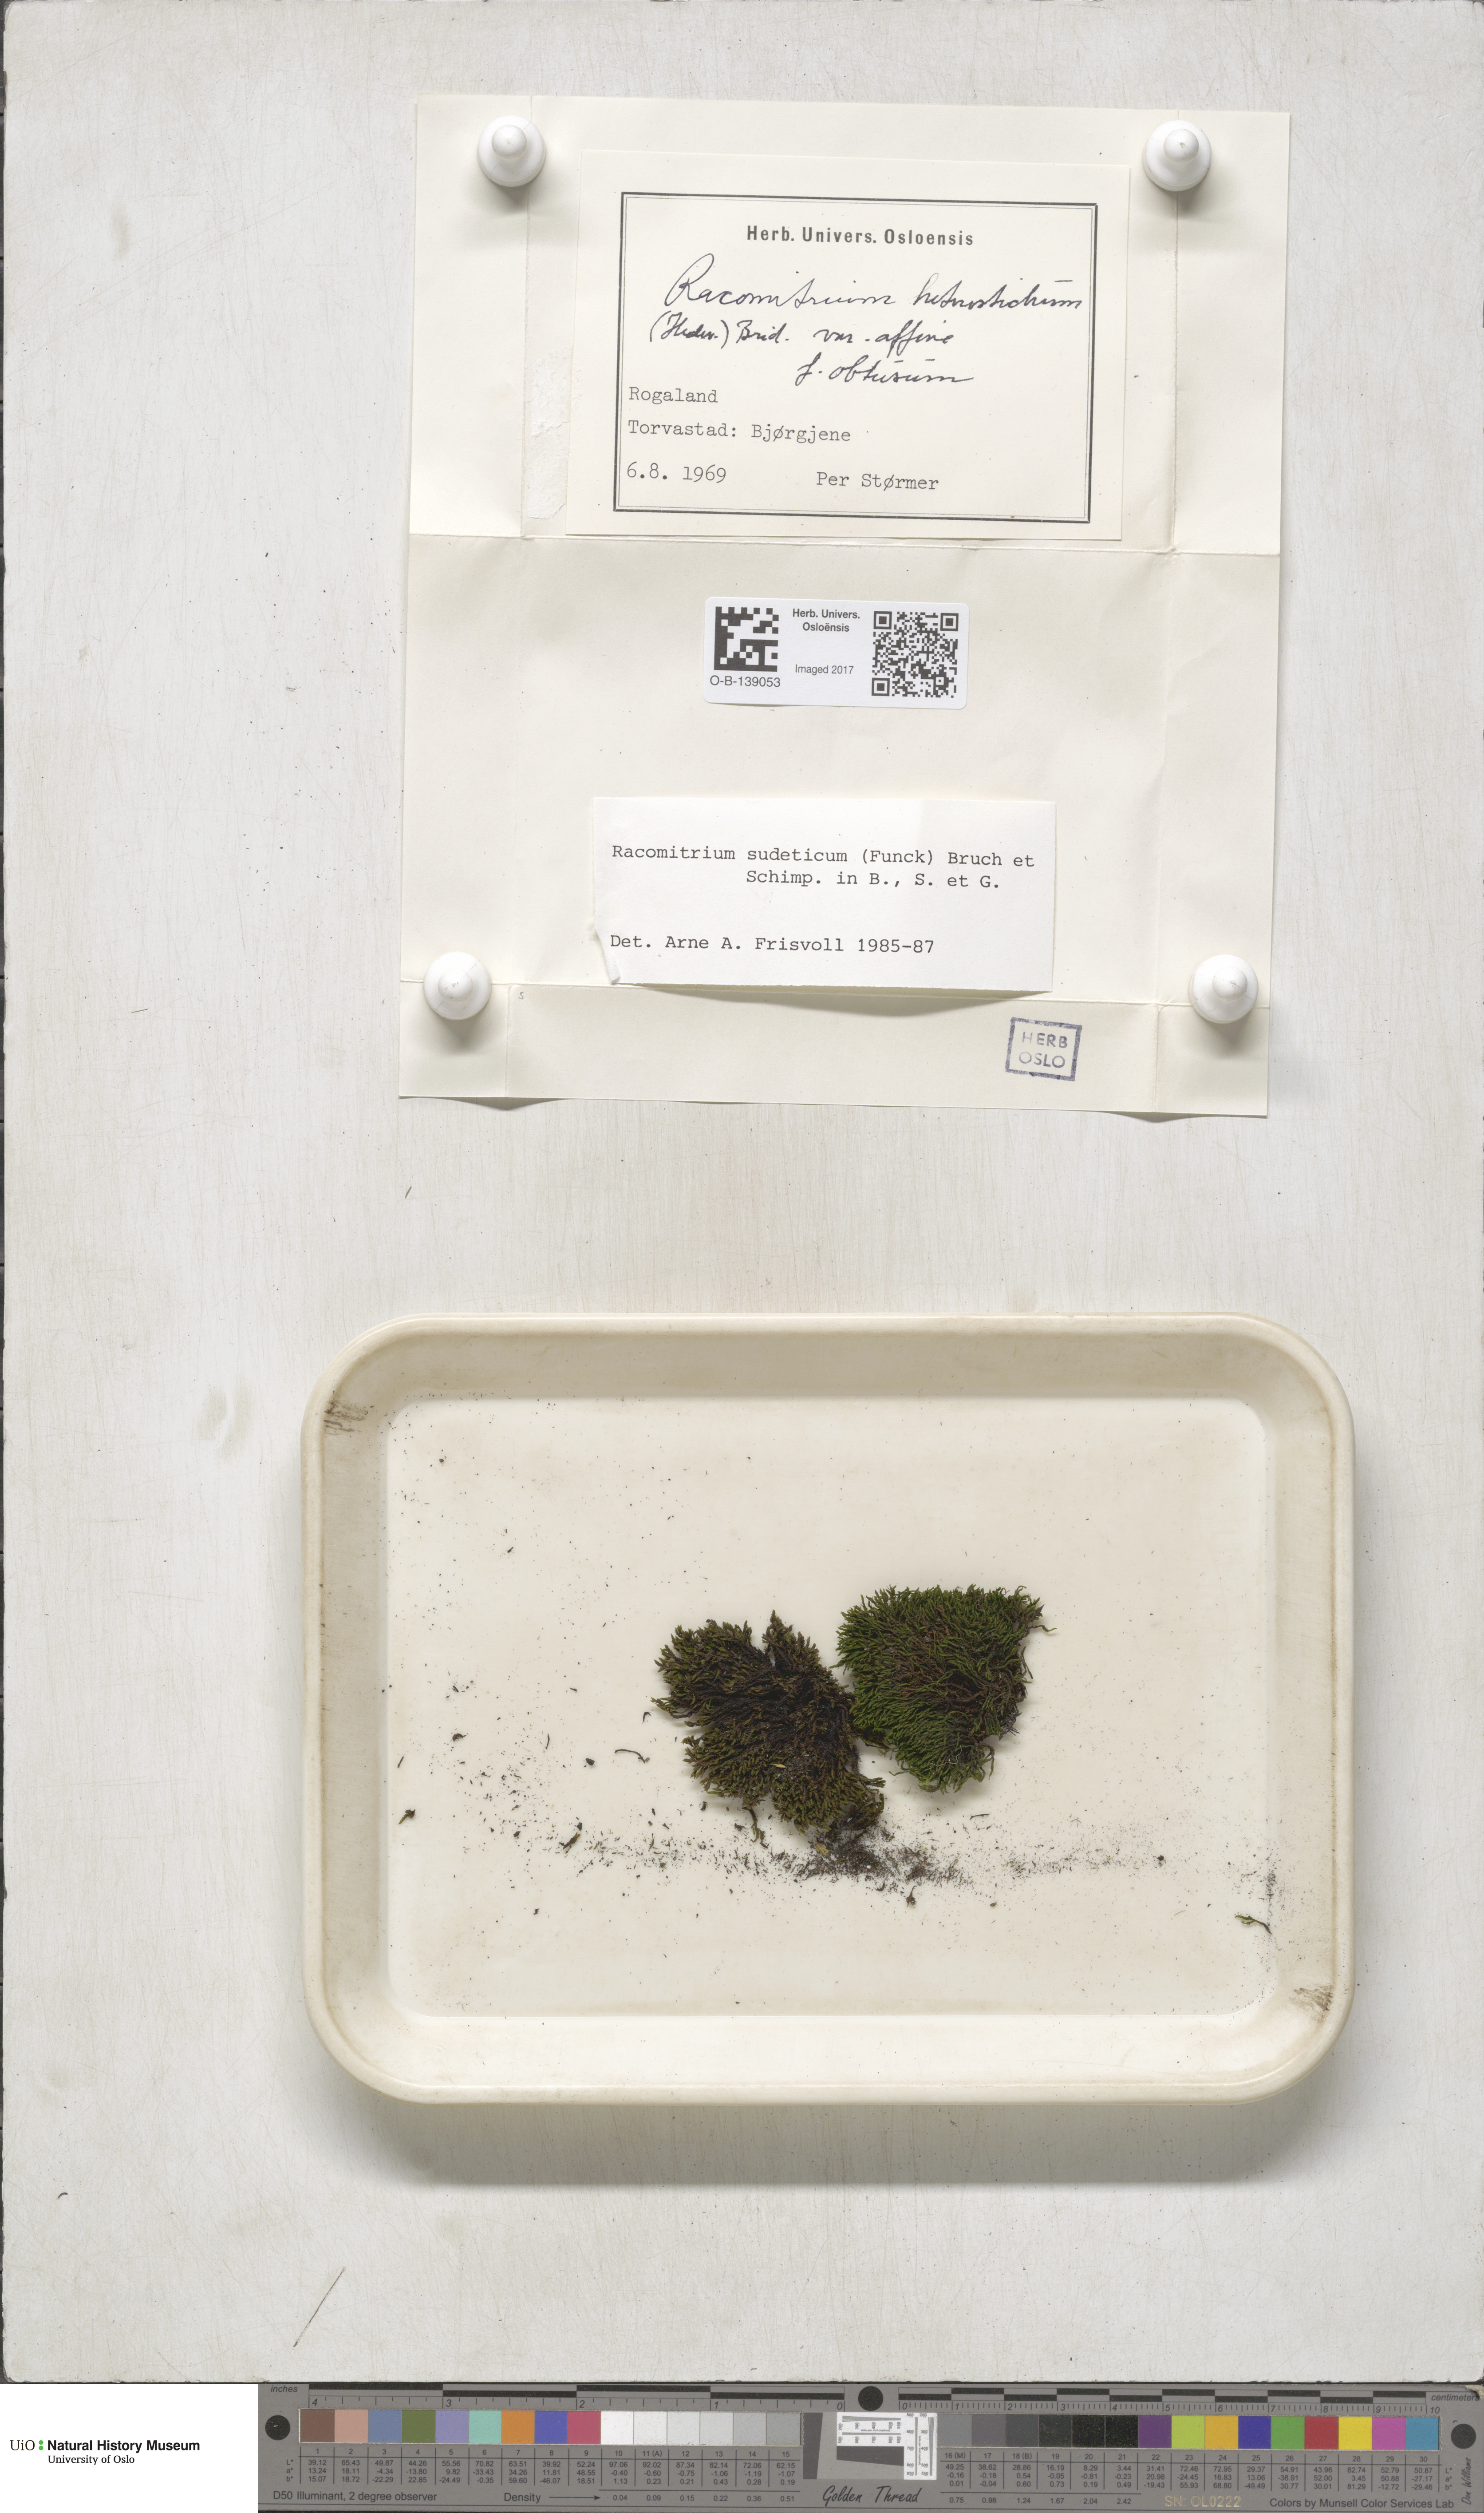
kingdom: Plantae
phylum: Bryophyta
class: Bryopsida
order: Grimmiales
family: Grimmiaceae
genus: Bucklandiella
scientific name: Bucklandiella sudetica
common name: Slender fringe-moss
